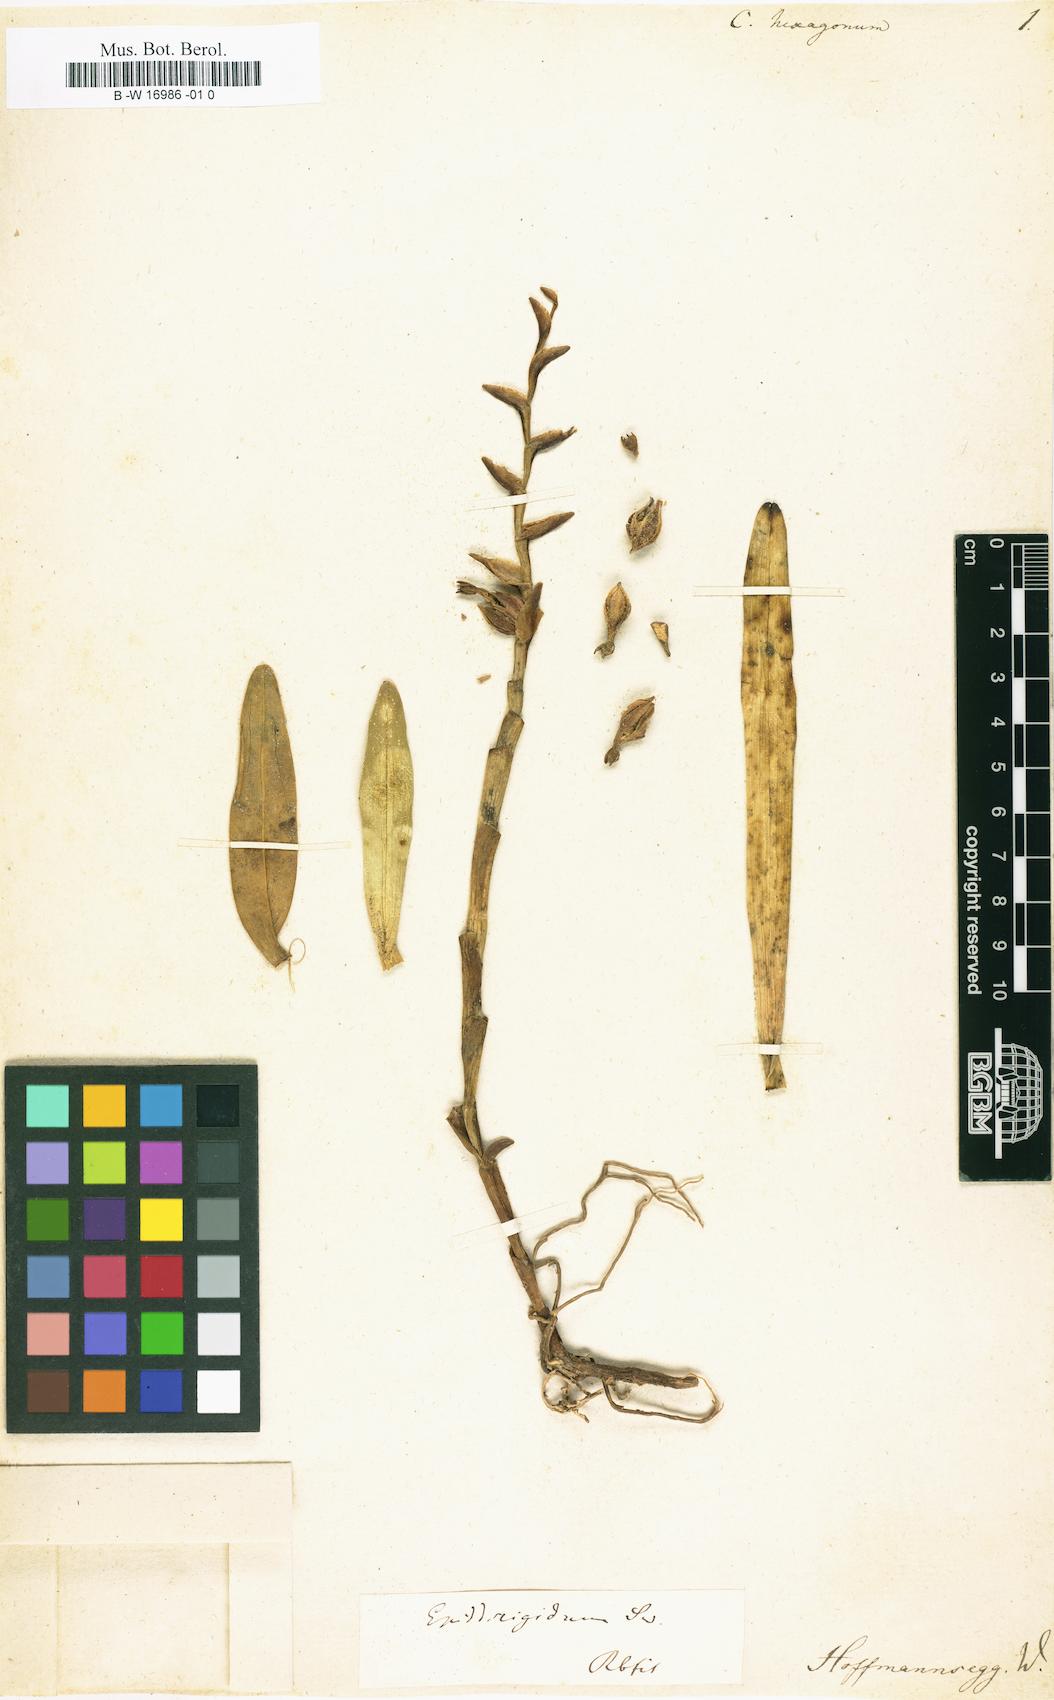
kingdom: Plantae
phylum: Tracheophyta
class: Liliopsida
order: Asparagales
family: Orchidaceae
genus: Cymbidium
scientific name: Cymbidium
